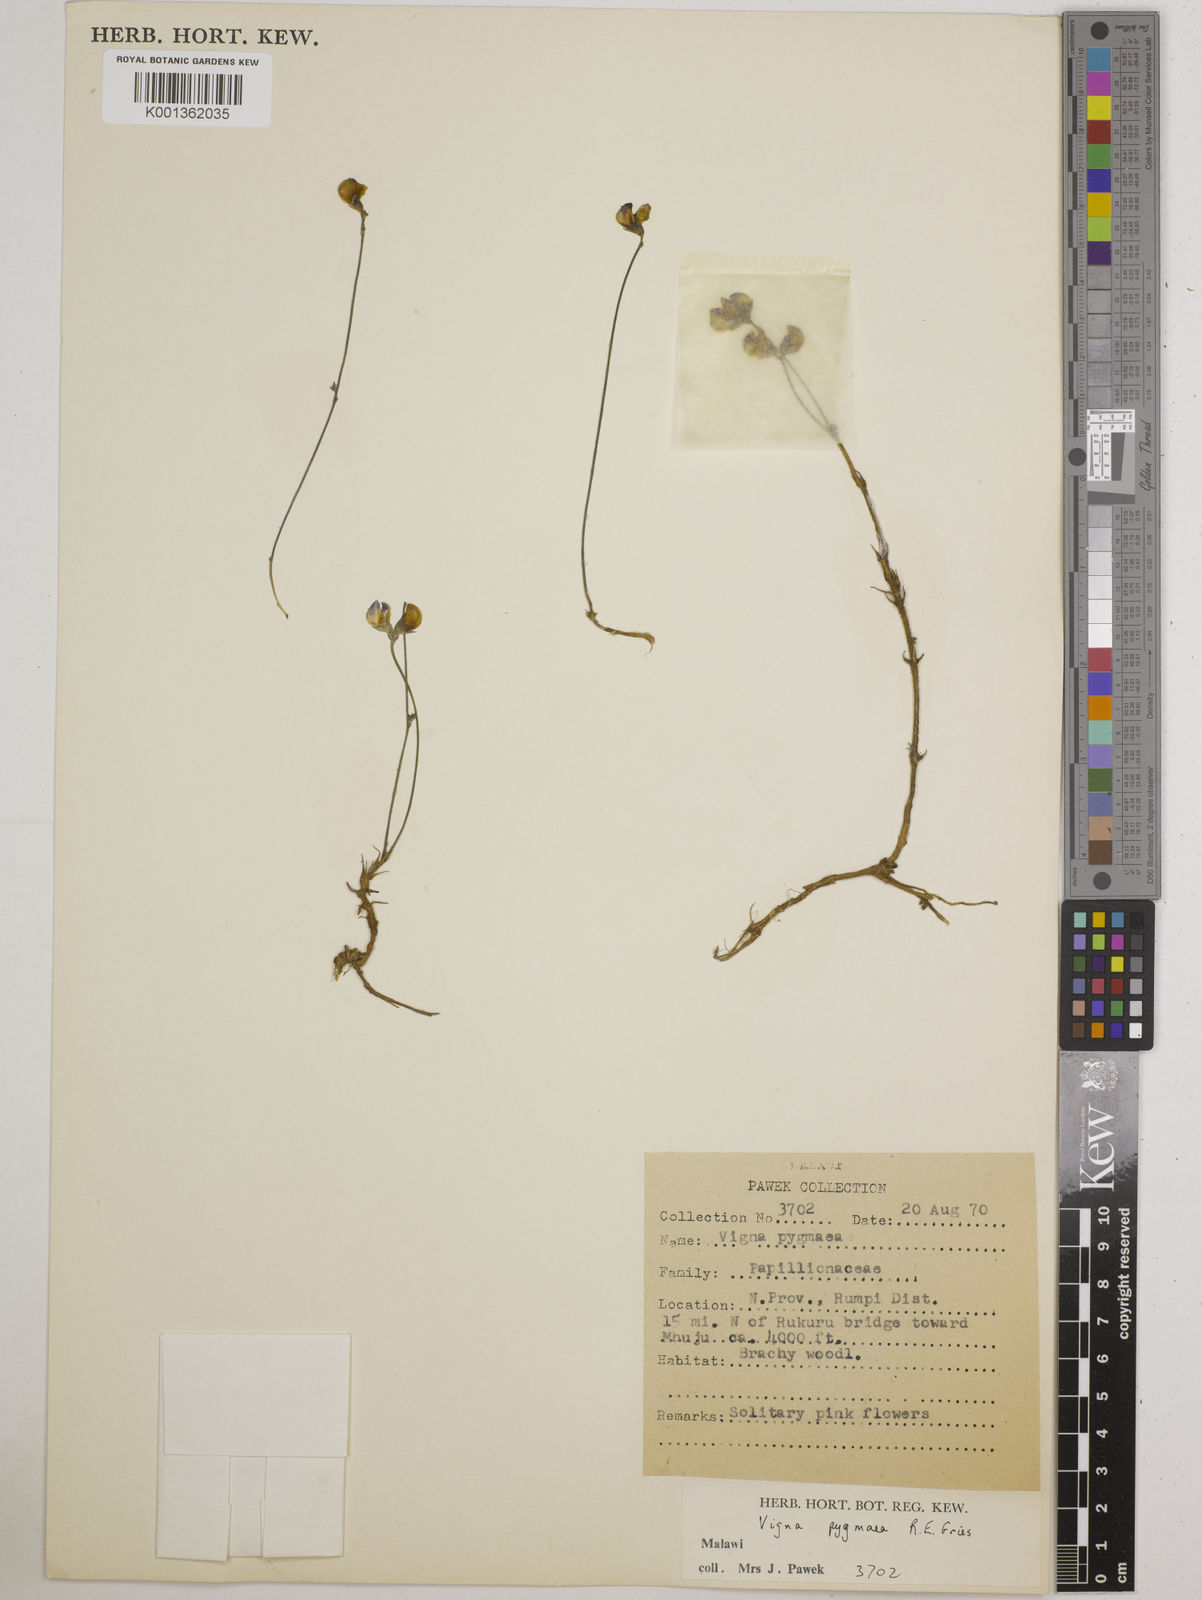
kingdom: Plantae
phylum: Tracheophyta
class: Magnoliopsida
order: Fabales
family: Fabaceae
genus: Vigna
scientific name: Vigna pygmaea
